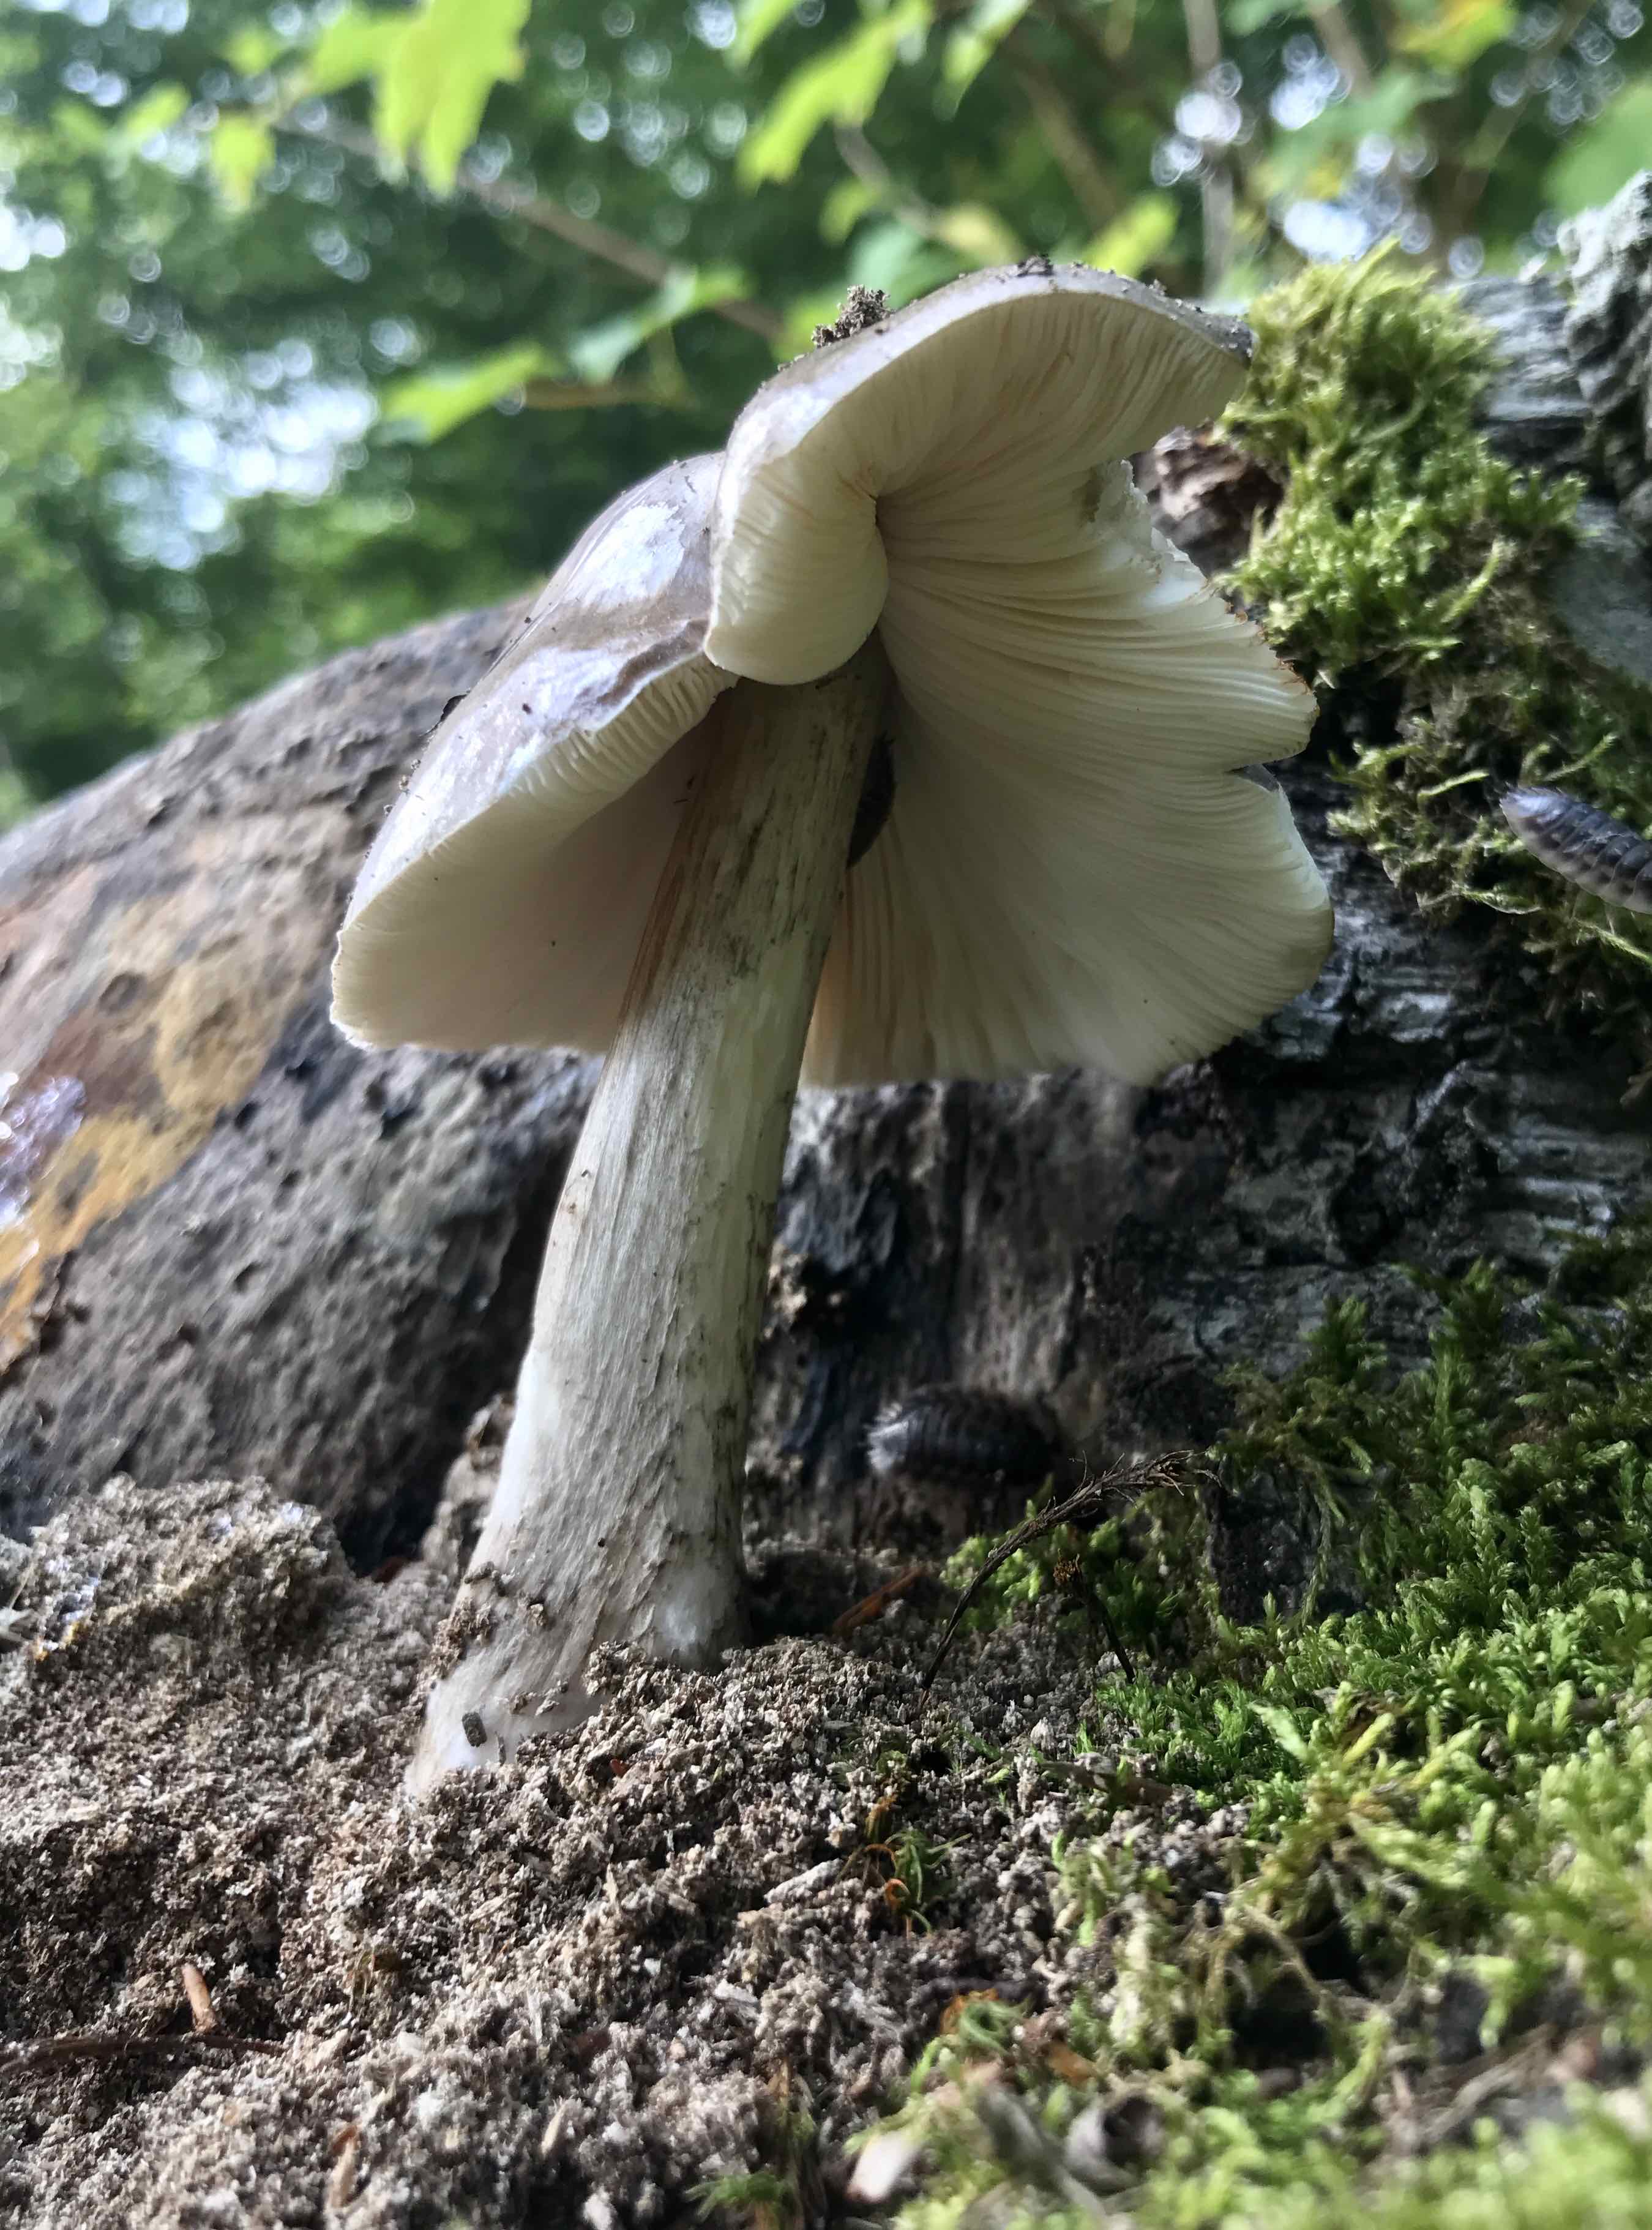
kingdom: Fungi
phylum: Basidiomycota
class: Agaricomycetes
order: Agaricales
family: Pluteaceae
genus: Pluteus
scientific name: Pluteus cervinus
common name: sodfarvet skærmhat
